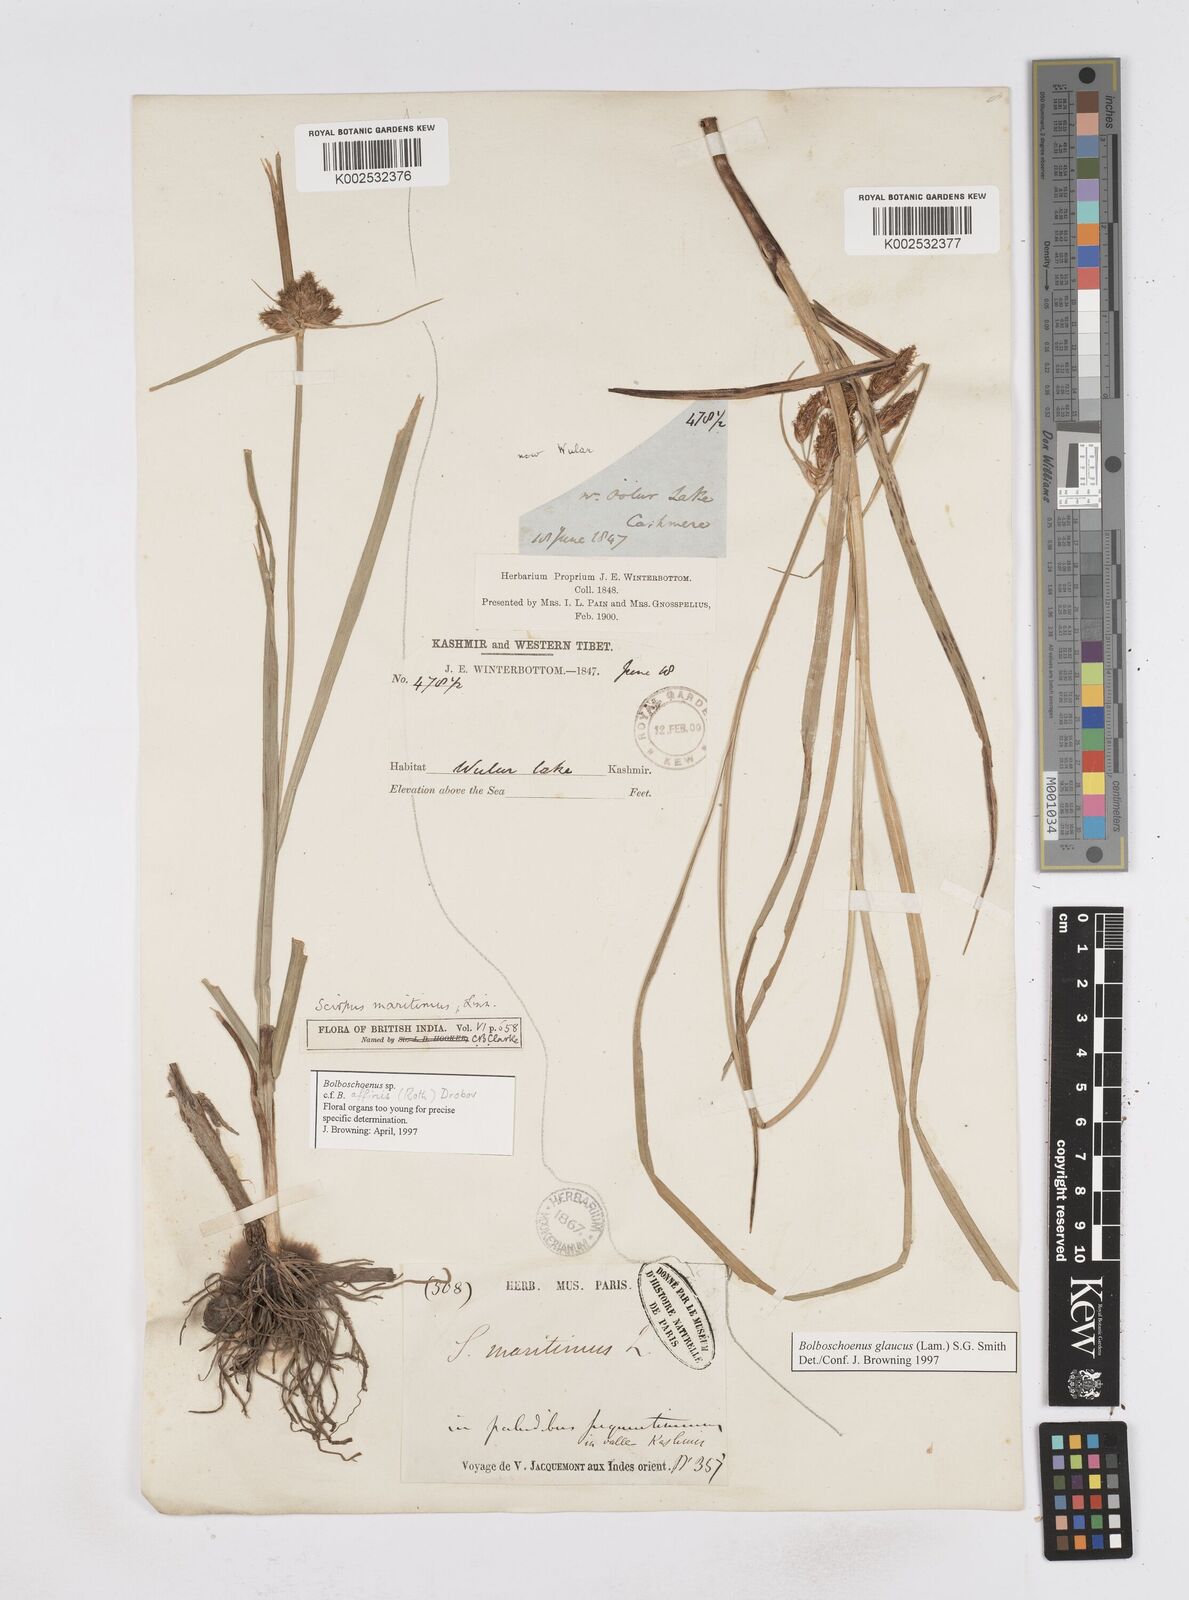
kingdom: Plantae
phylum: Tracheophyta
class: Liliopsida
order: Poales
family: Cyperaceae
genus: Bolboschoenus
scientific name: Bolboschoenus maritimus
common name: Sea club-rush
